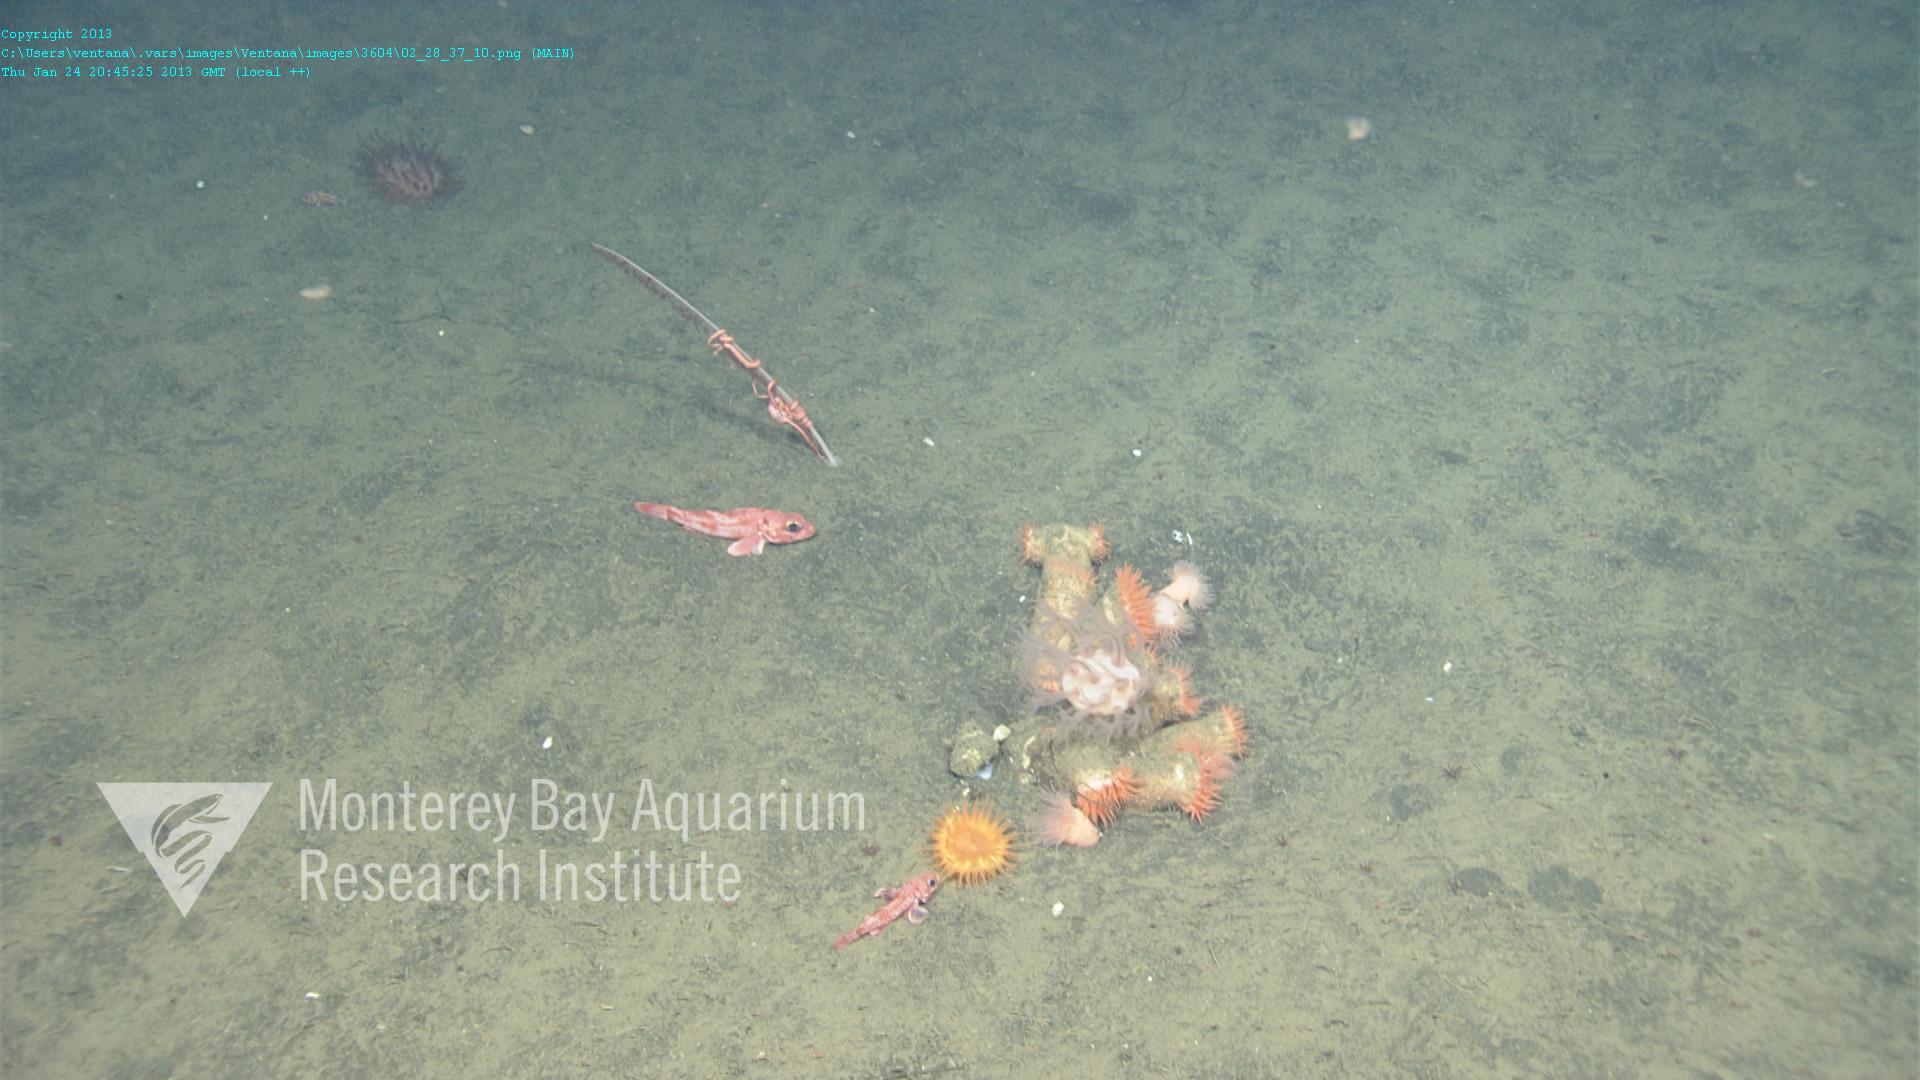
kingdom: Animalia
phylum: Cnidaria
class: Anthozoa
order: Scleralcyonacea
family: Coralliidae
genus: Heteropolypus
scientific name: Heteropolypus ritteri
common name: Ritter's soft coral
